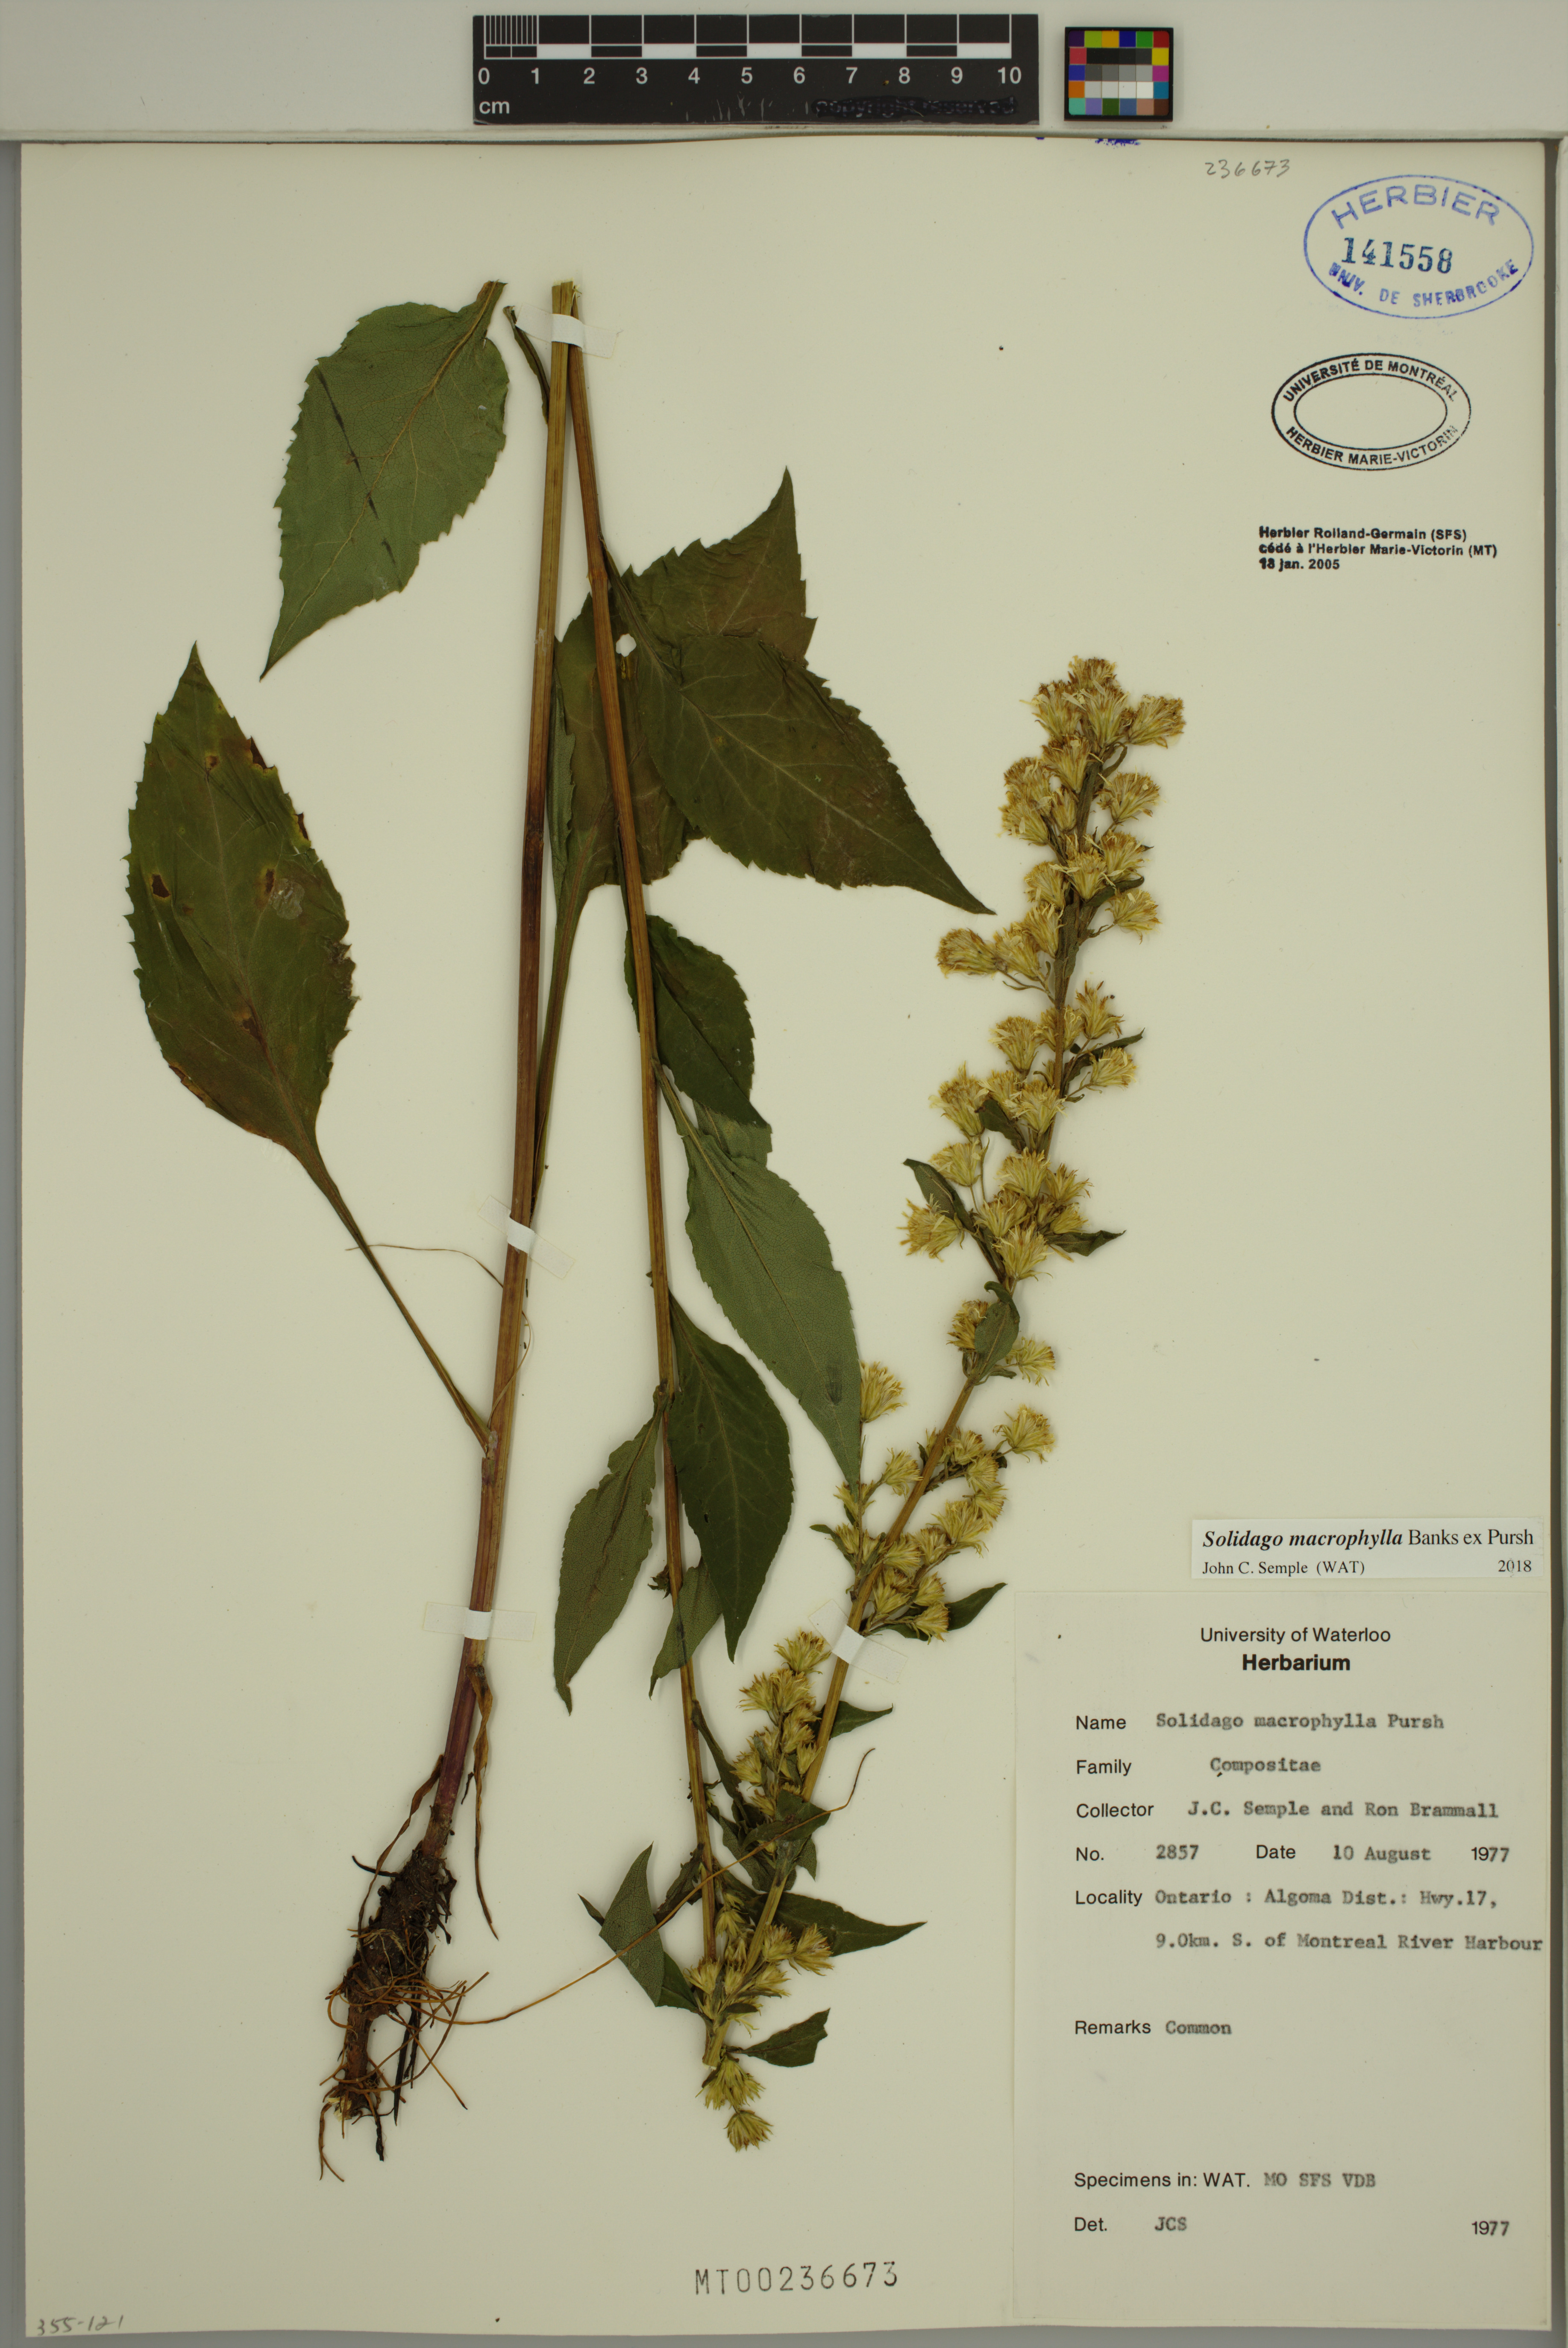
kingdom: Plantae
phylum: Tracheophyta
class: Magnoliopsida
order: Asterales
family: Asteraceae
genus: Solidago
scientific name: Solidago macrophylla
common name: Large-leaved goldenrod
